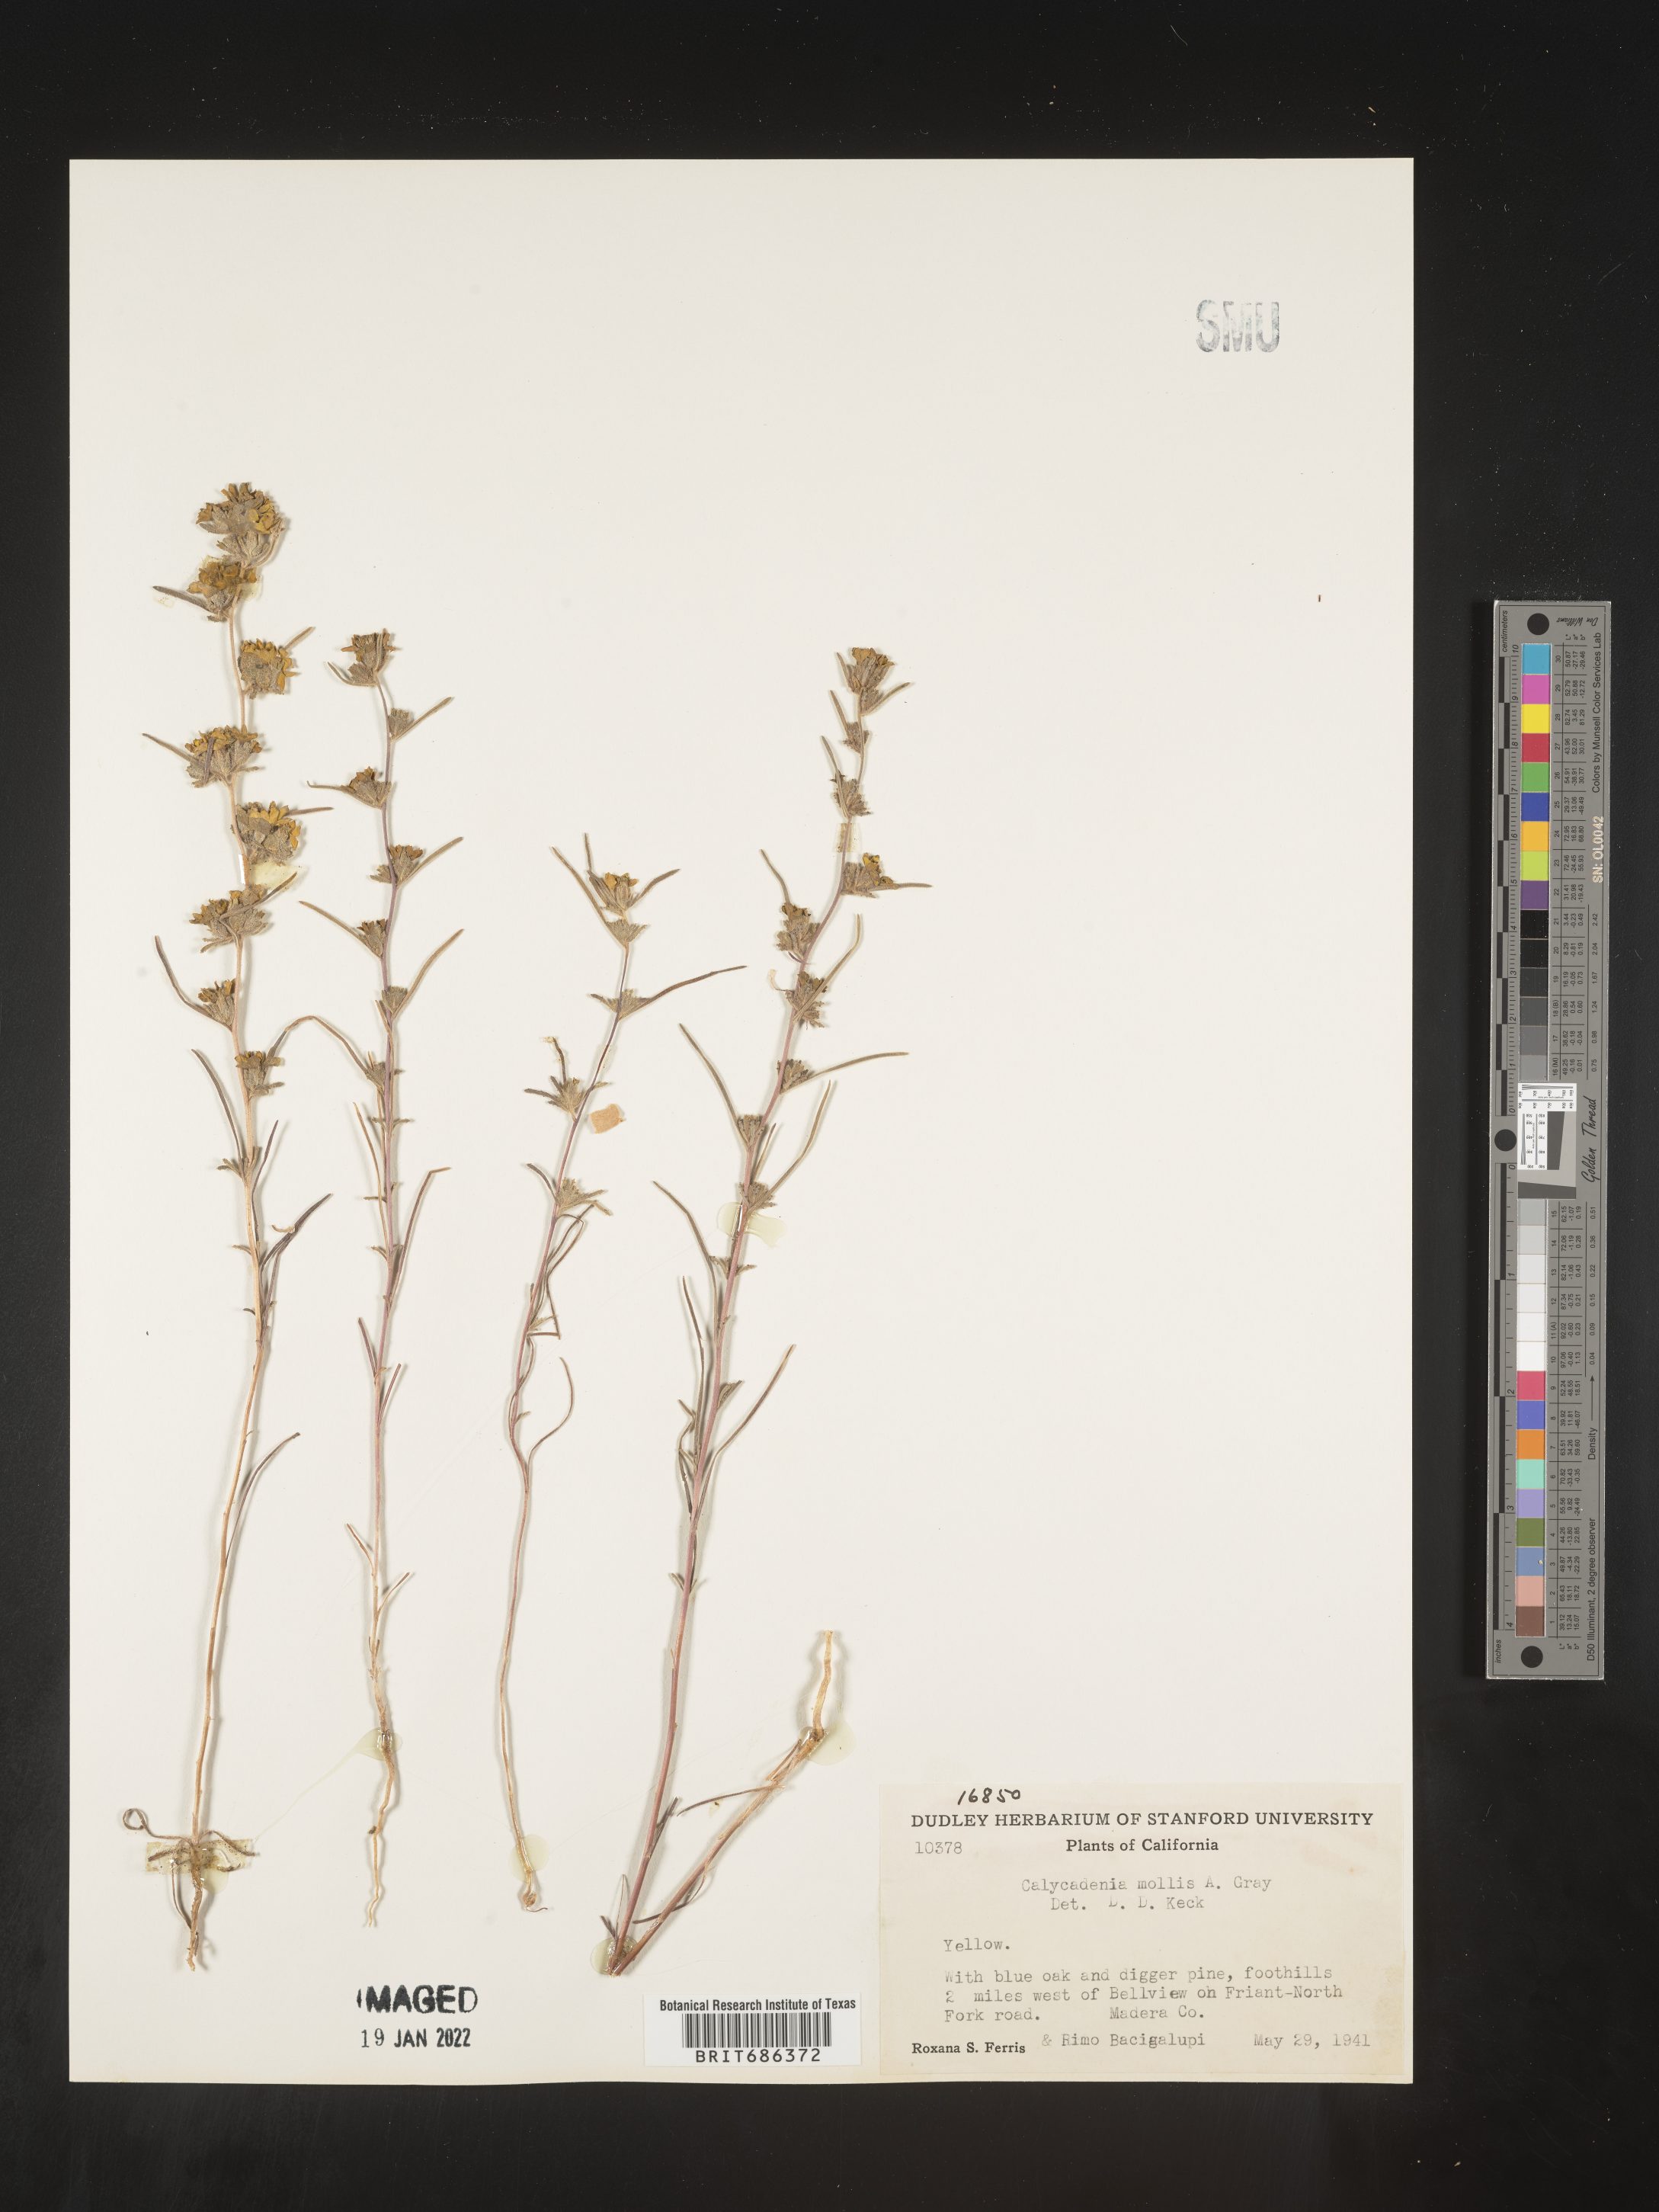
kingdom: Plantae
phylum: Tracheophyta
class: Magnoliopsida
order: Asterales
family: Asteraceae
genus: Calycadenia
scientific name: Calycadenia
